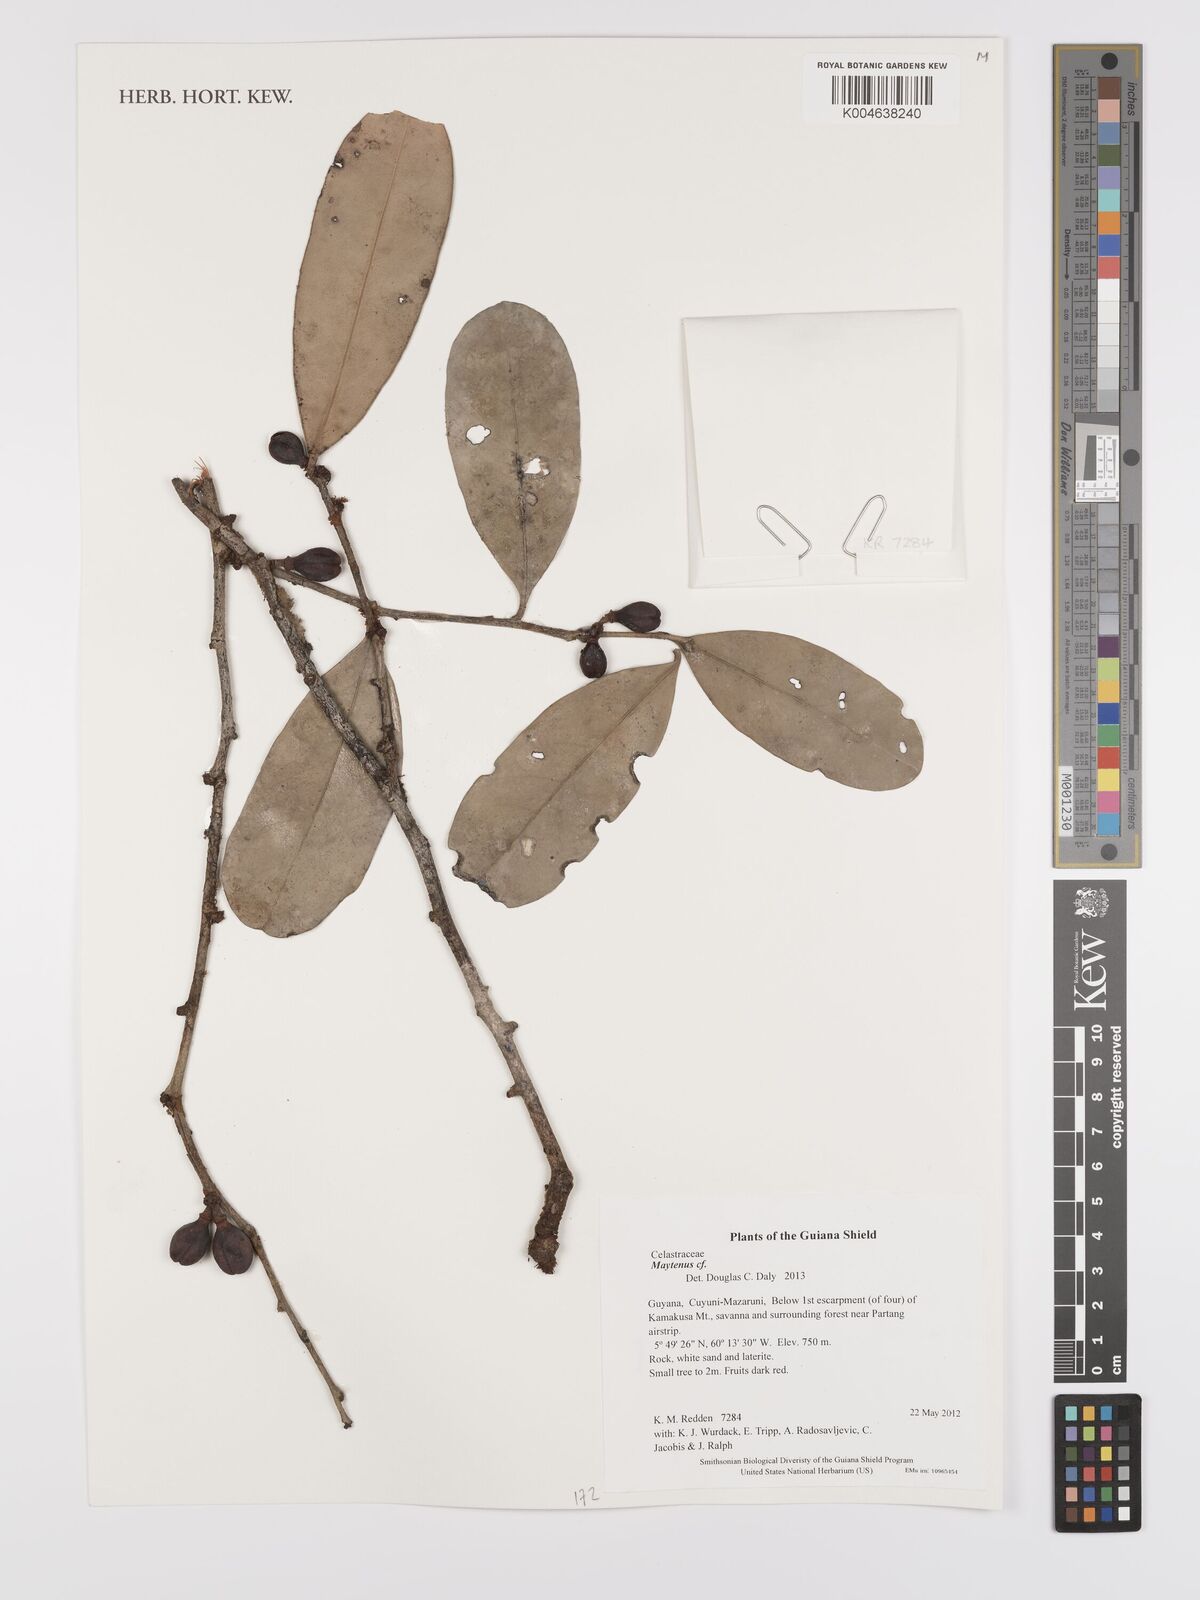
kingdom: Plantae
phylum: Tracheophyta
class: Magnoliopsida
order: Celastrales
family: Celastraceae
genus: Maytenus
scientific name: Maytenus
